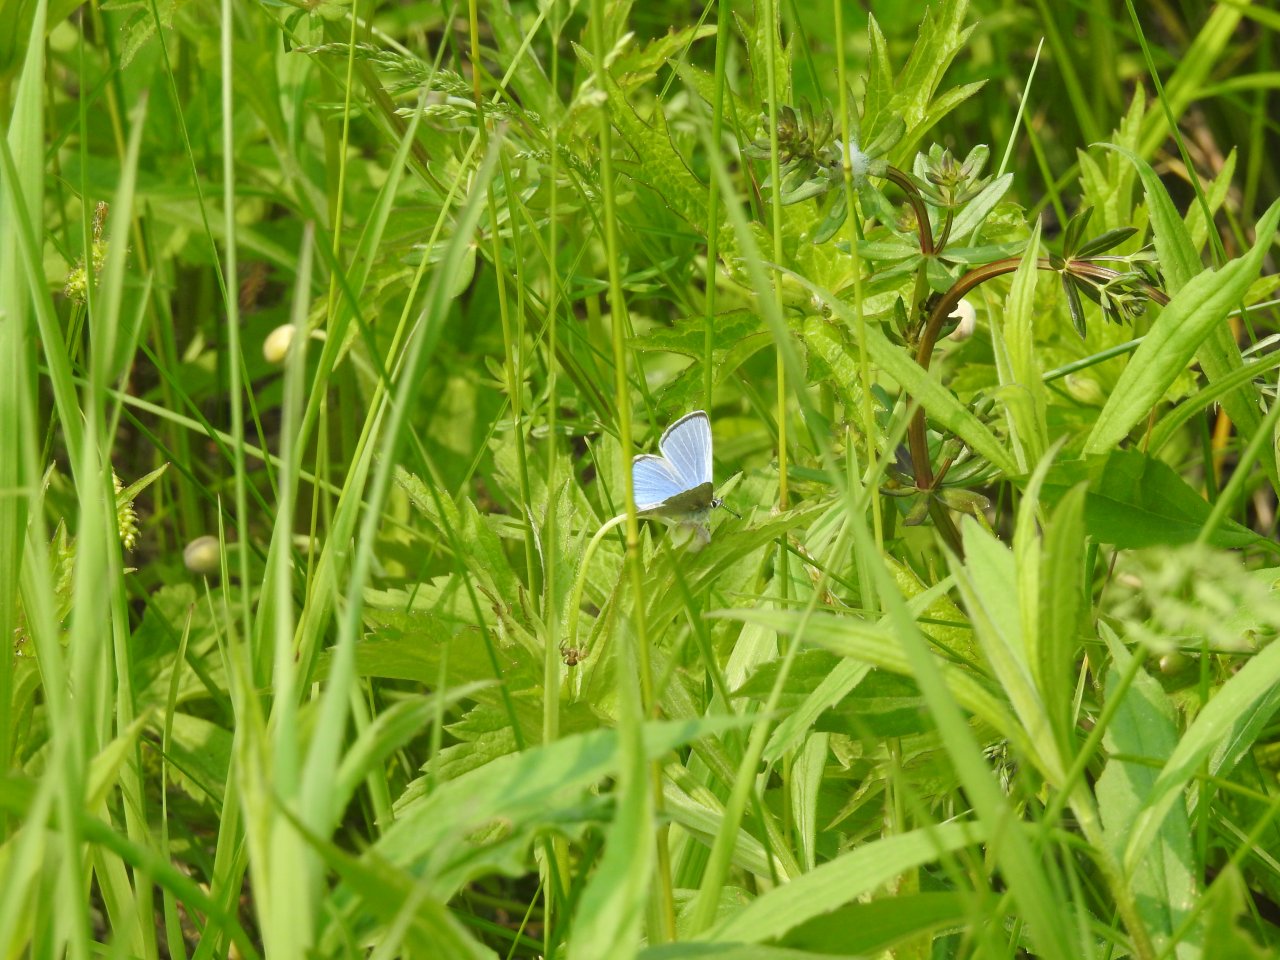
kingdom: Animalia
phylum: Arthropoda
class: Insecta
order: Lepidoptera
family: Lycaenidae
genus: Glaucopsyche
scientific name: Glaucopsyche lygdamus
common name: Silvery Blue
